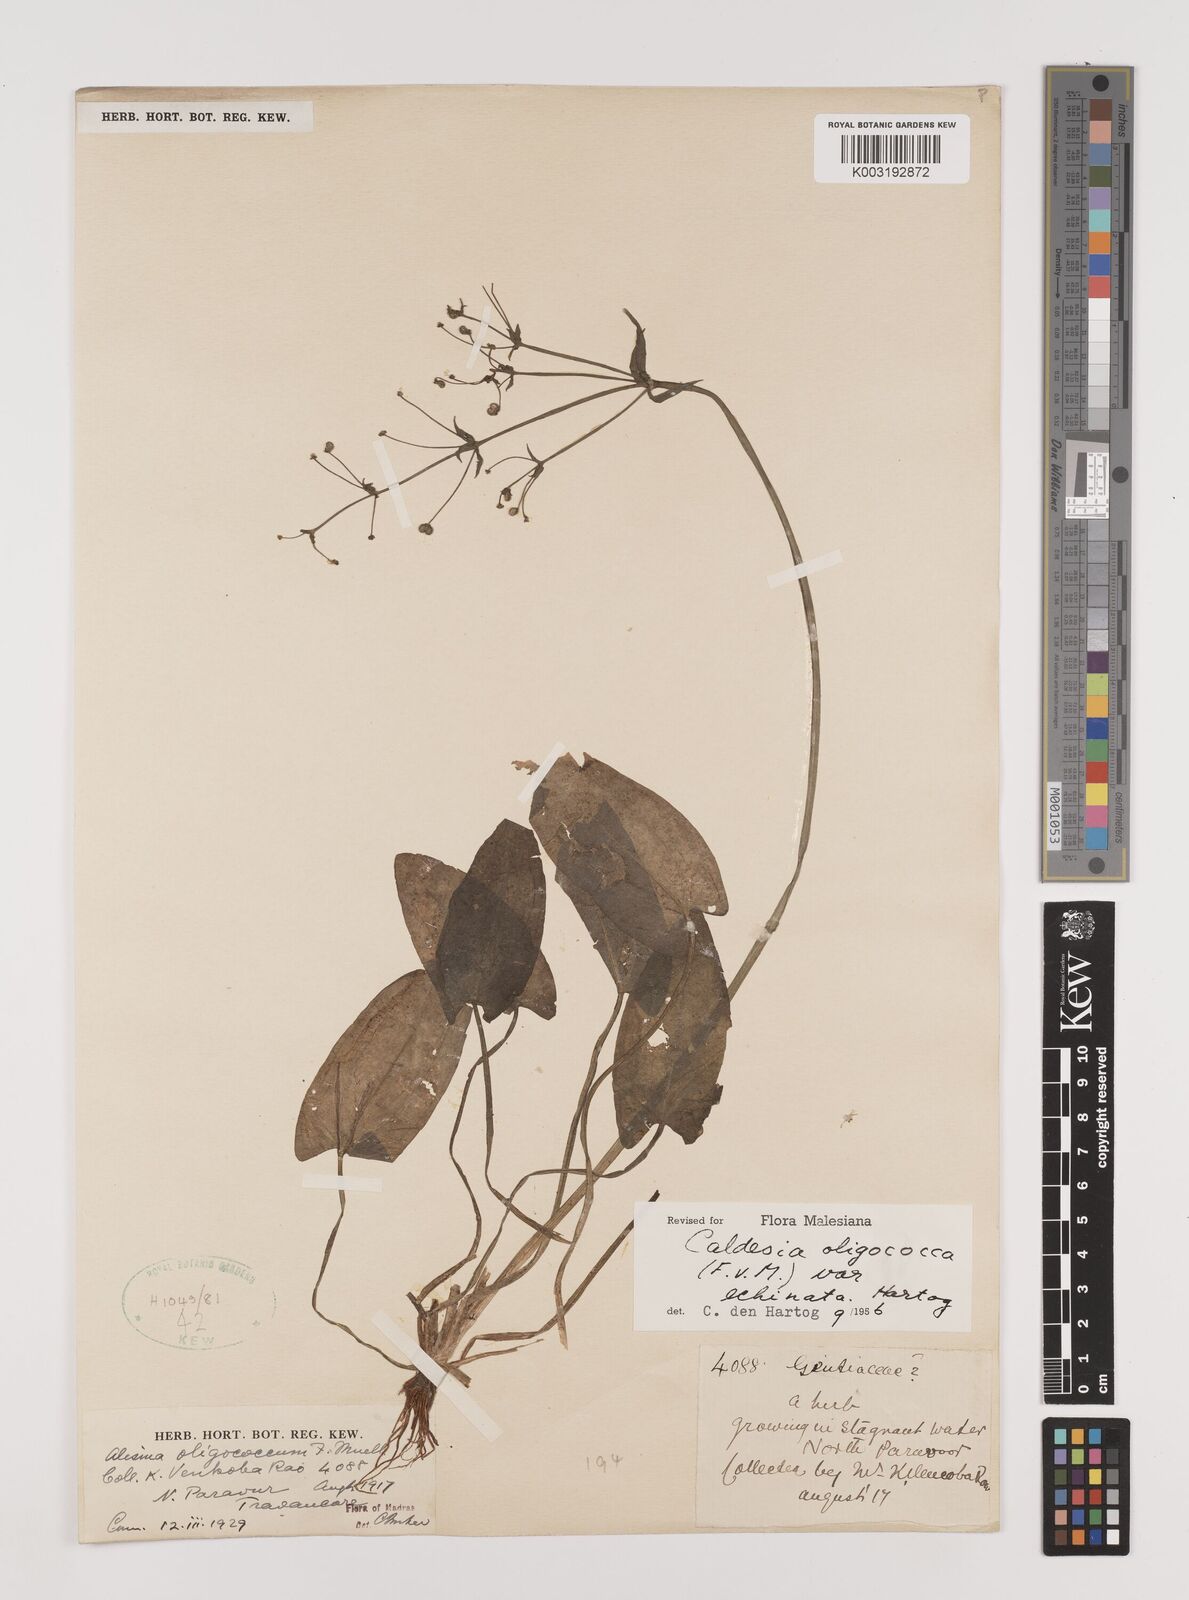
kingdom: Plantae
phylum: Tracheophyta
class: Liliopsida
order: Alismatales
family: Alismataceae
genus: Albidella
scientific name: Albidella glandulosa
